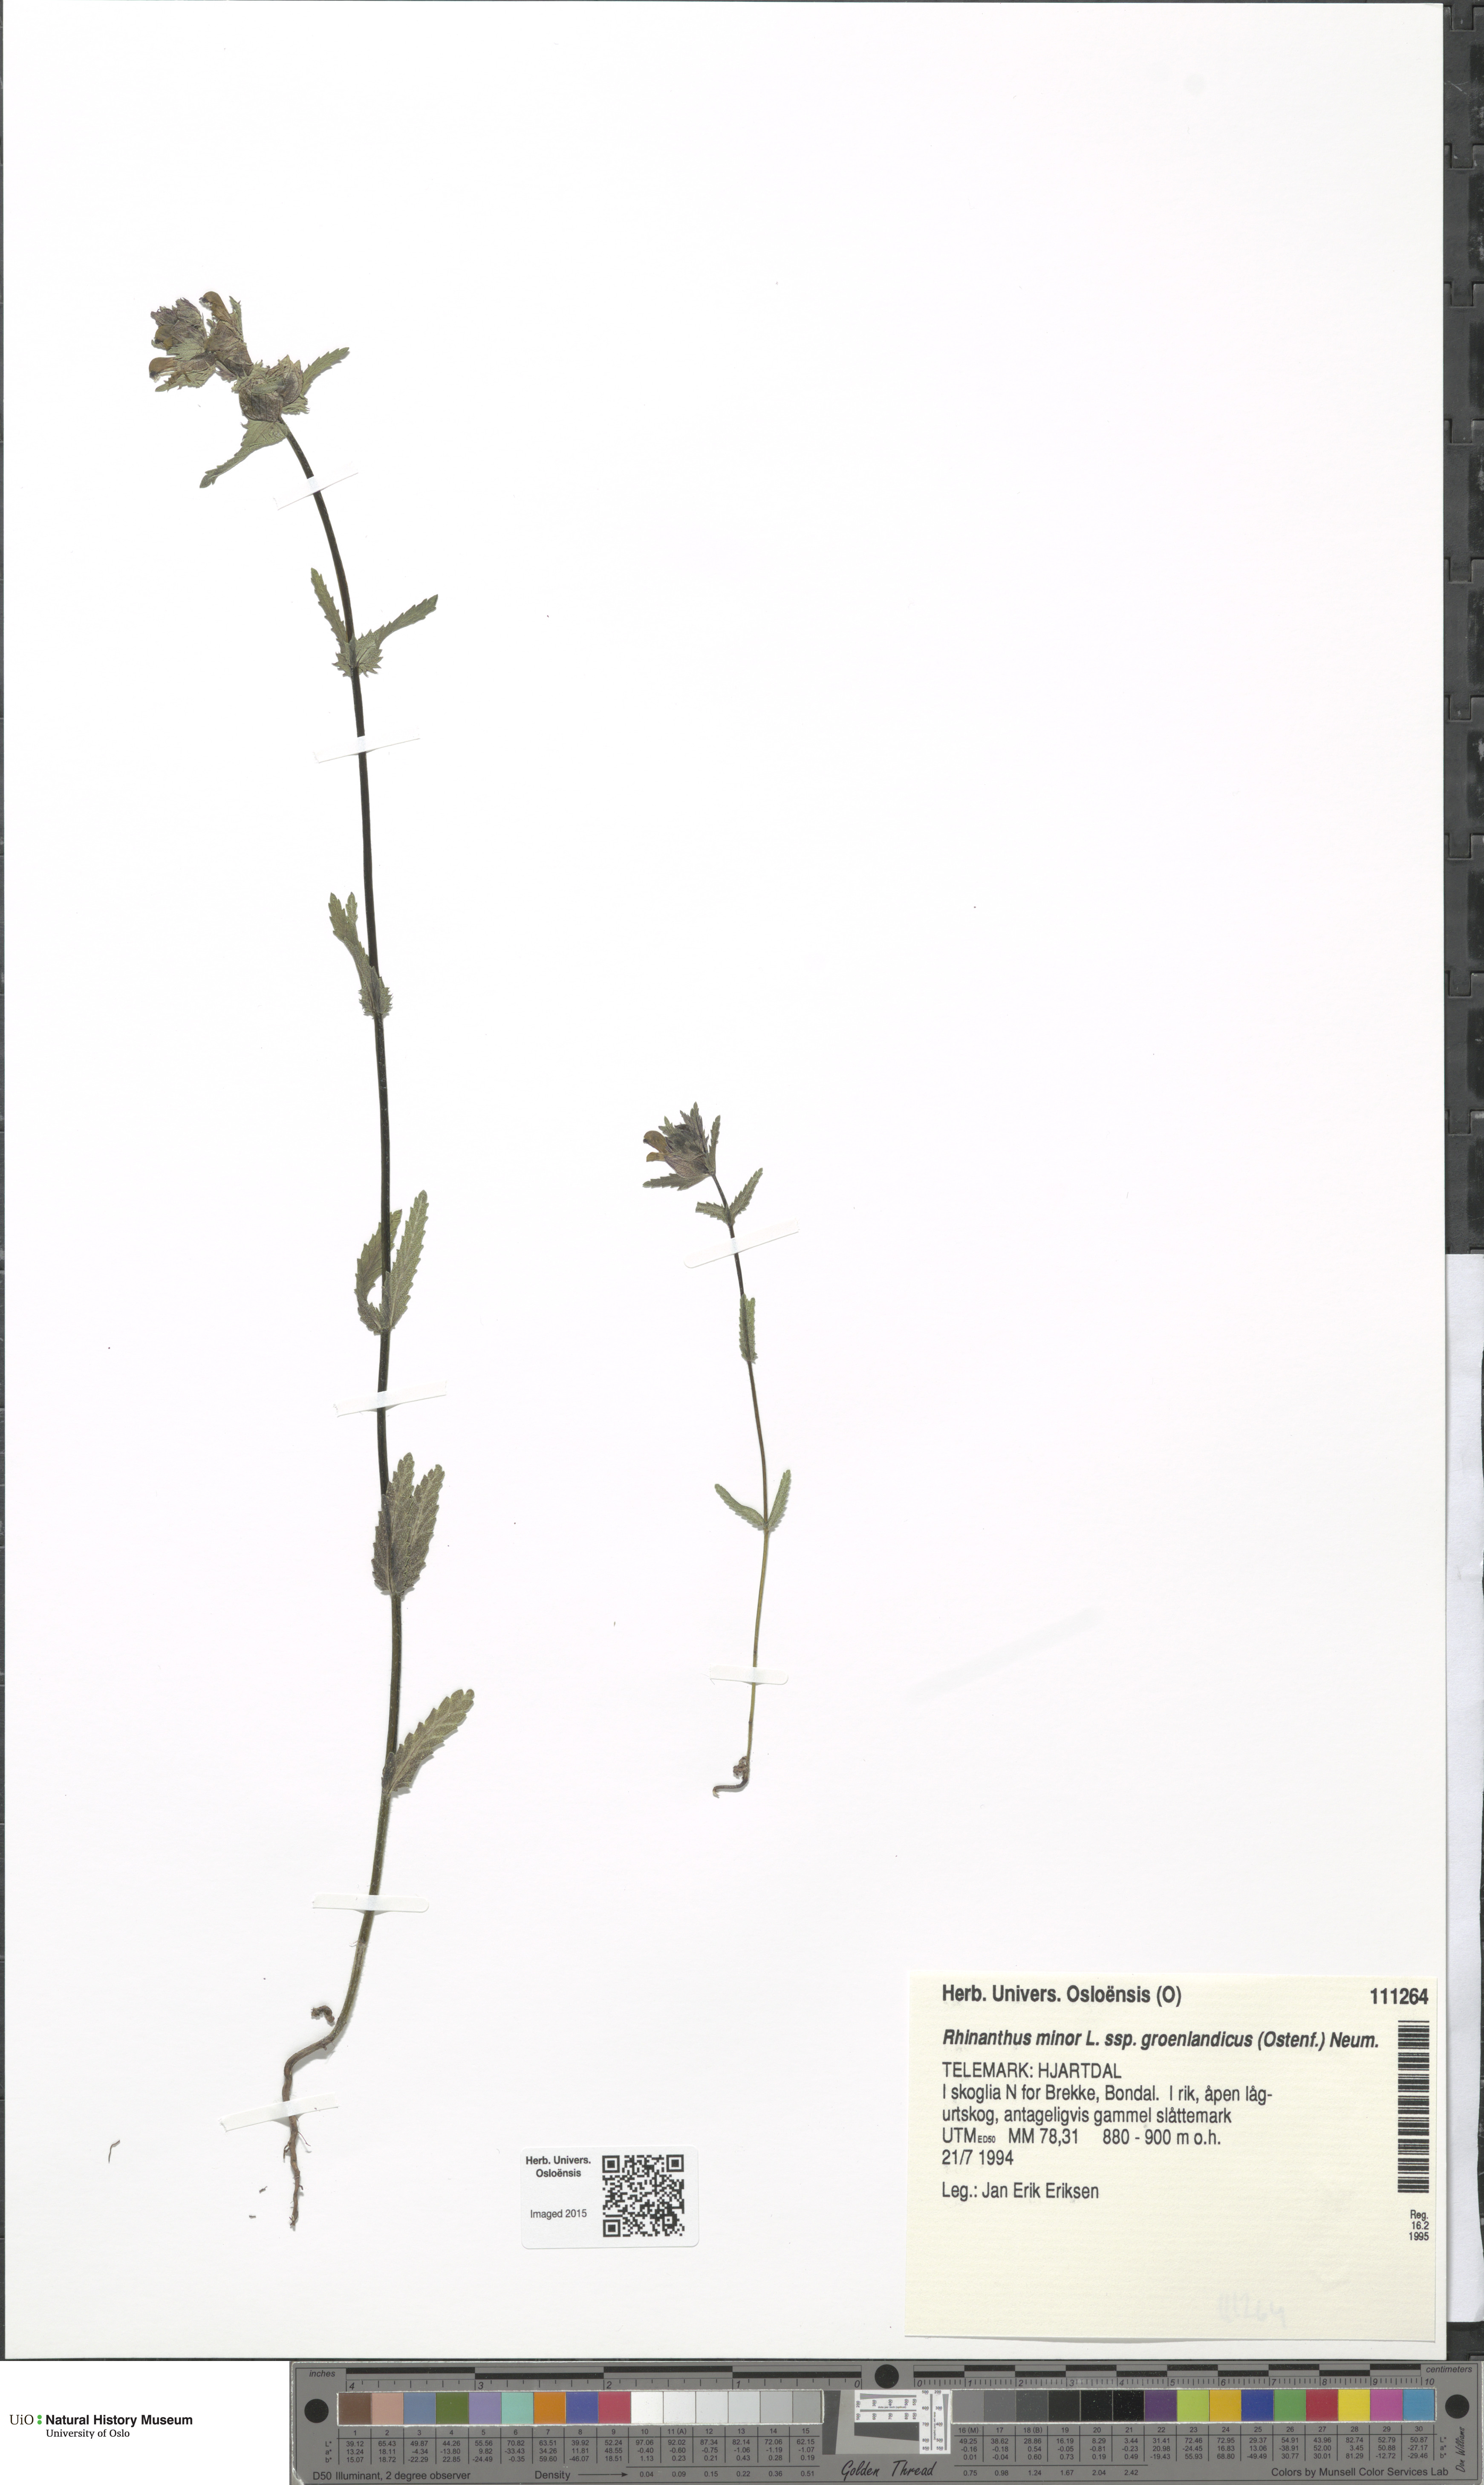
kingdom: Plantae
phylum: Tracheophyta
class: Magnoliopsida
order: Lamiales
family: Orobanchaceae
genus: Rhinanthus
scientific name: Rhinanthus groenlandicus
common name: Little yellow rattle
